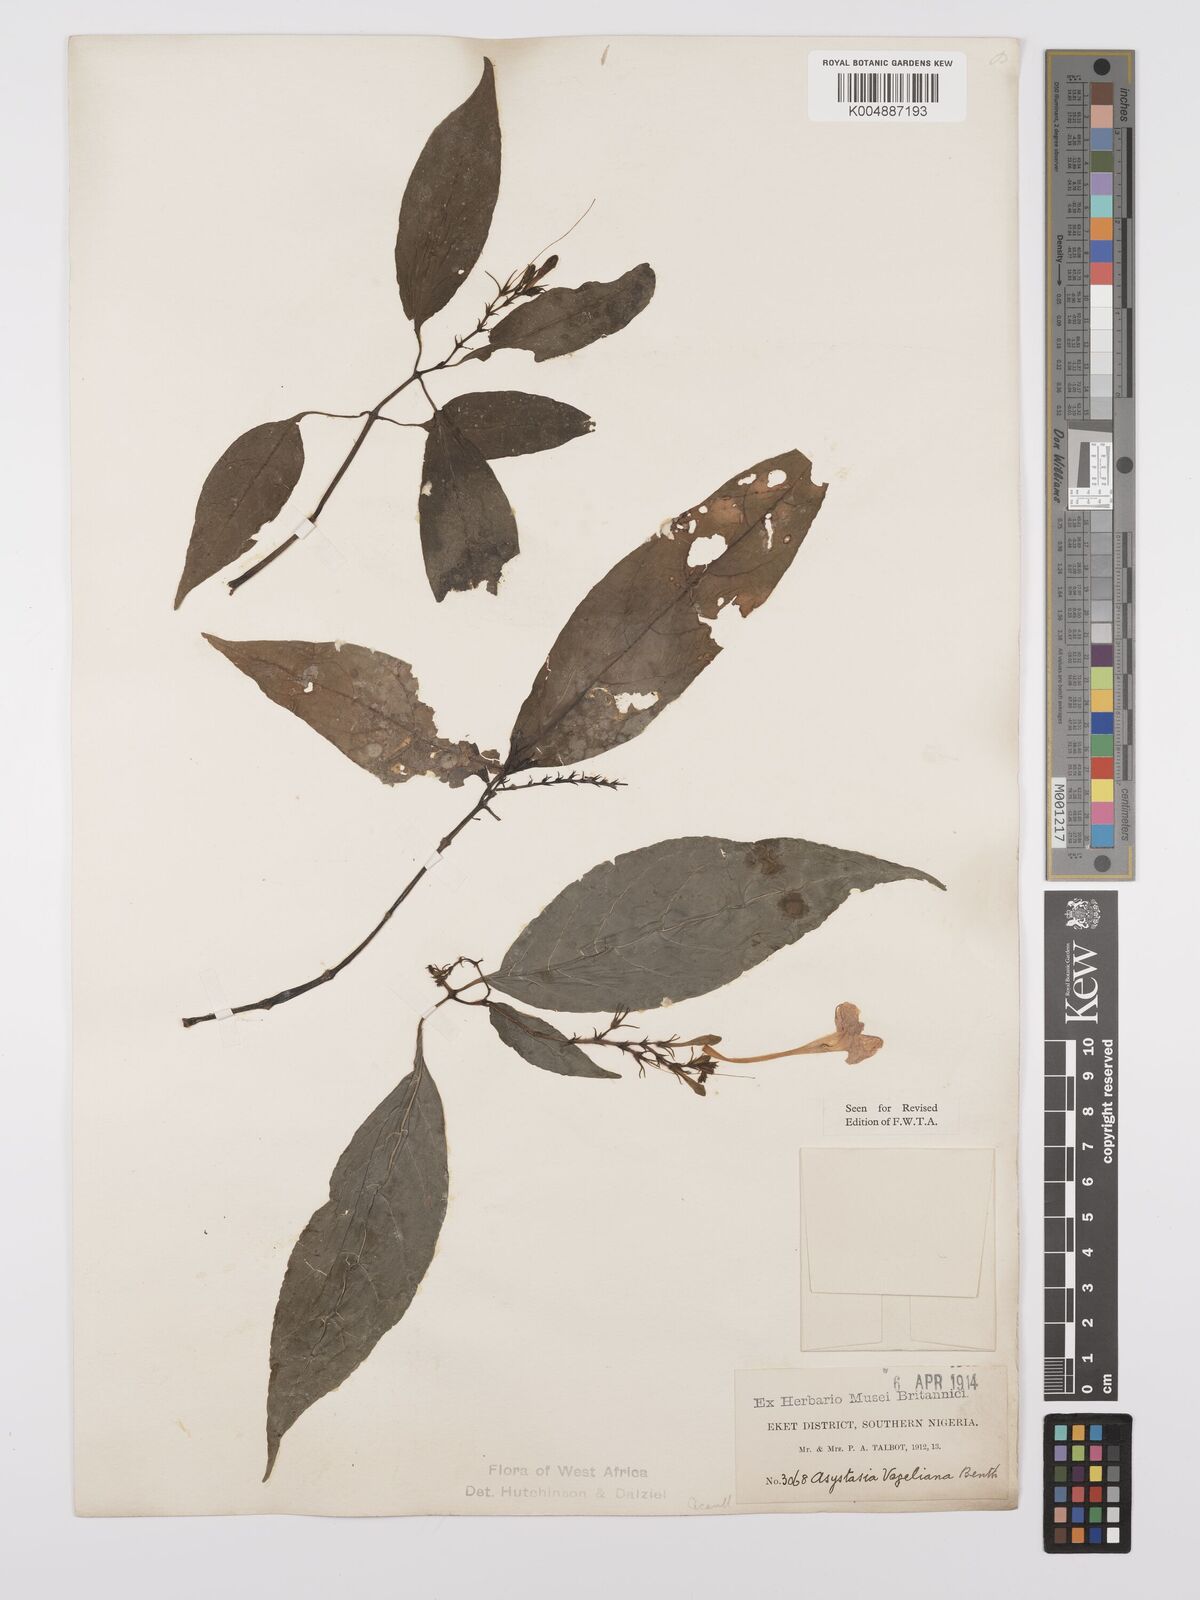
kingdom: Plantae
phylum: Tracheophyta
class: Magnoliopsida
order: Lamiales
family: Acanthaceae
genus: Asystasia
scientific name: Asystasia vogeliana
